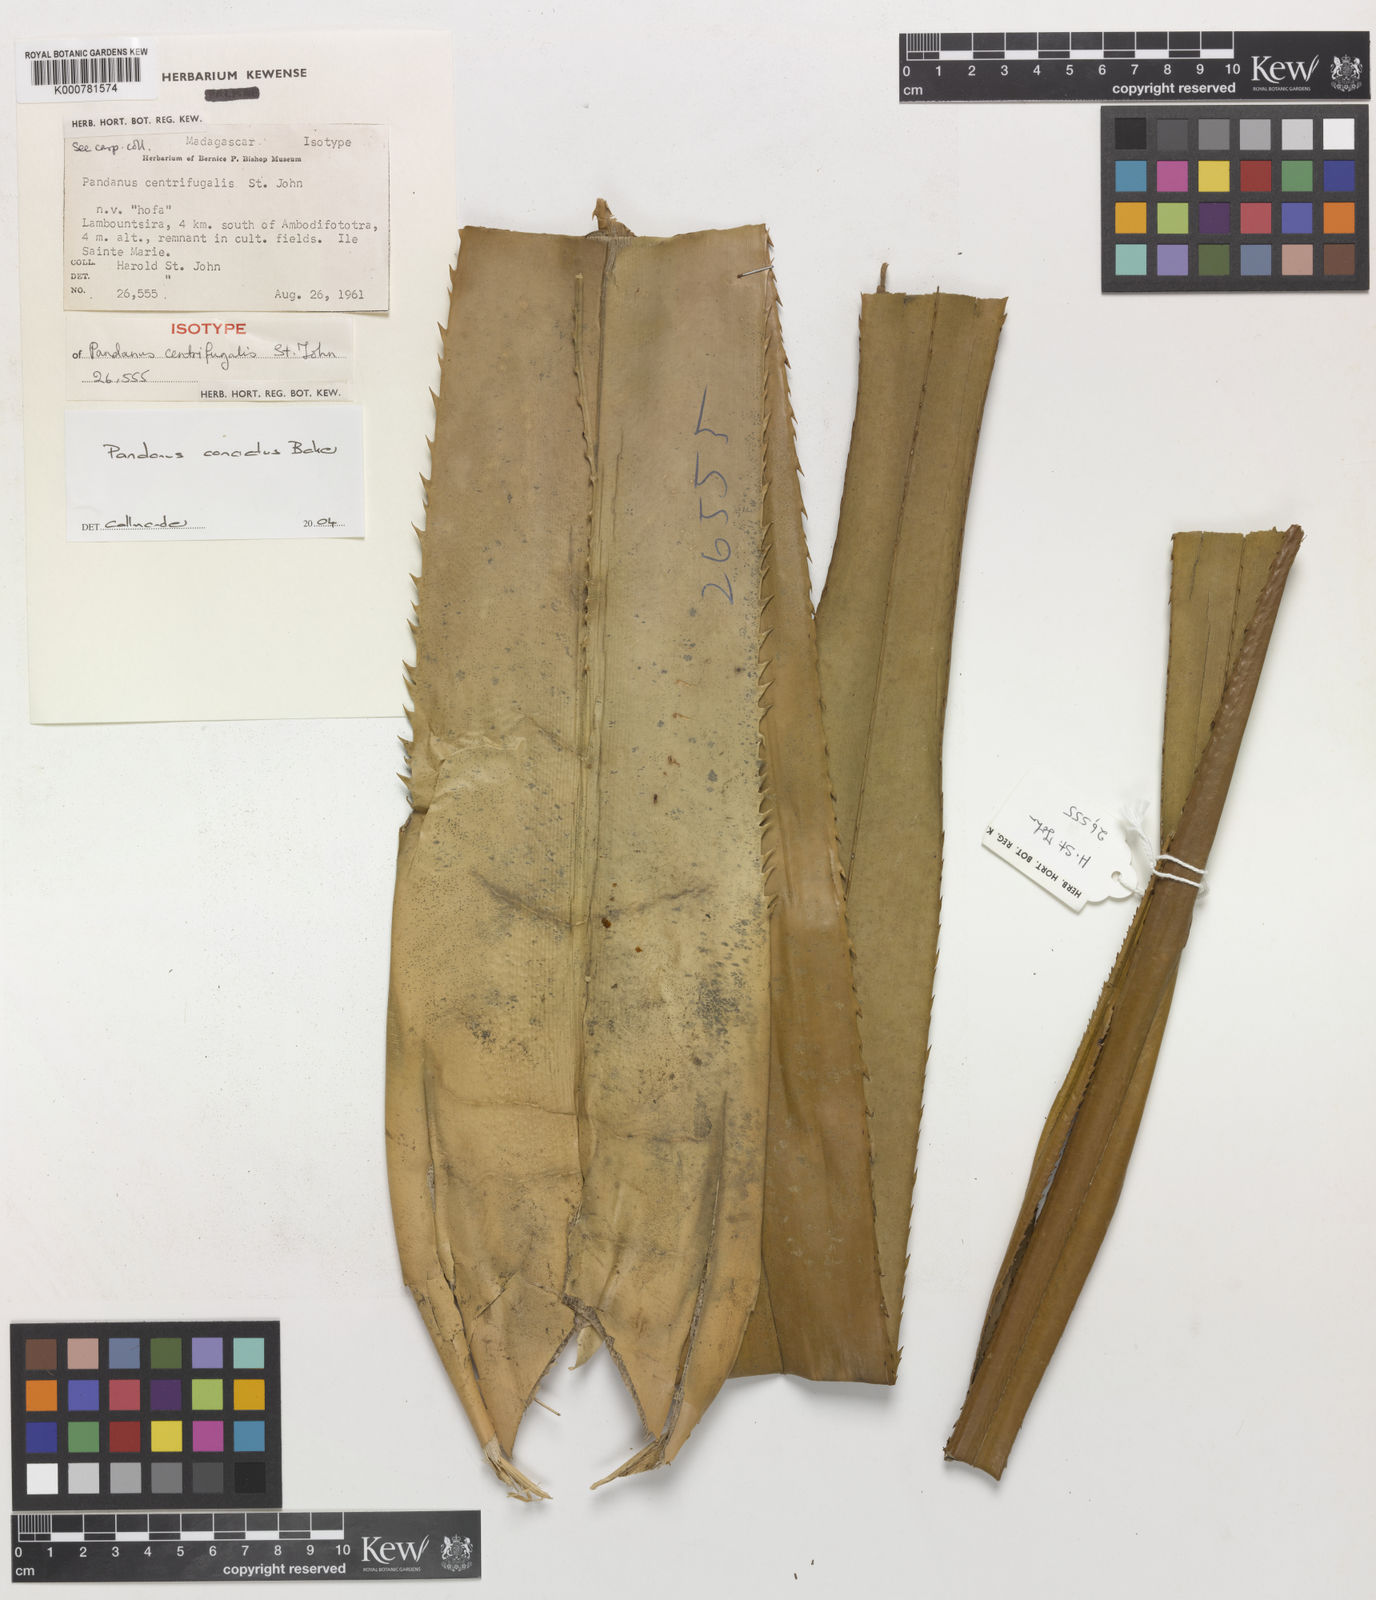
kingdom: Plantae
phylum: Tracheophyta
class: Liliopsida
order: Pandanales
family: Pandanaceae
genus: Pandanus
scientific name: Pandanus concretus
